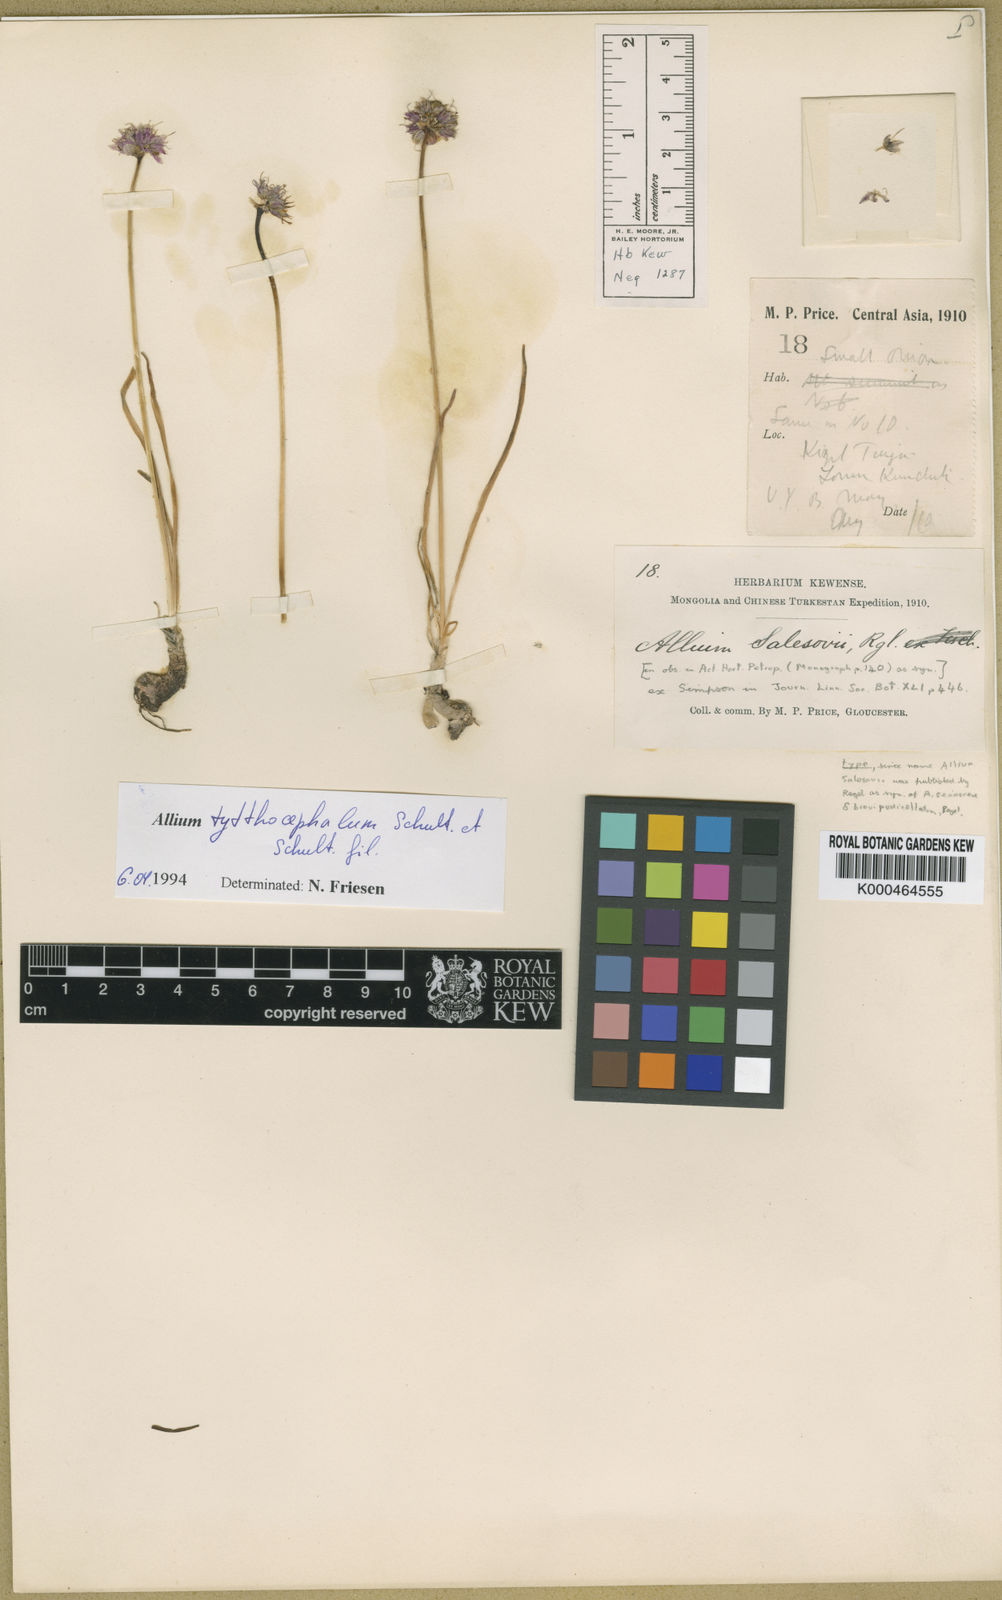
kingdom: Plantae
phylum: Tracheophyta
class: Liliopsida
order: Asparagales
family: Amaryllidaceae
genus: Allium
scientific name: Allium tytthocephalum
